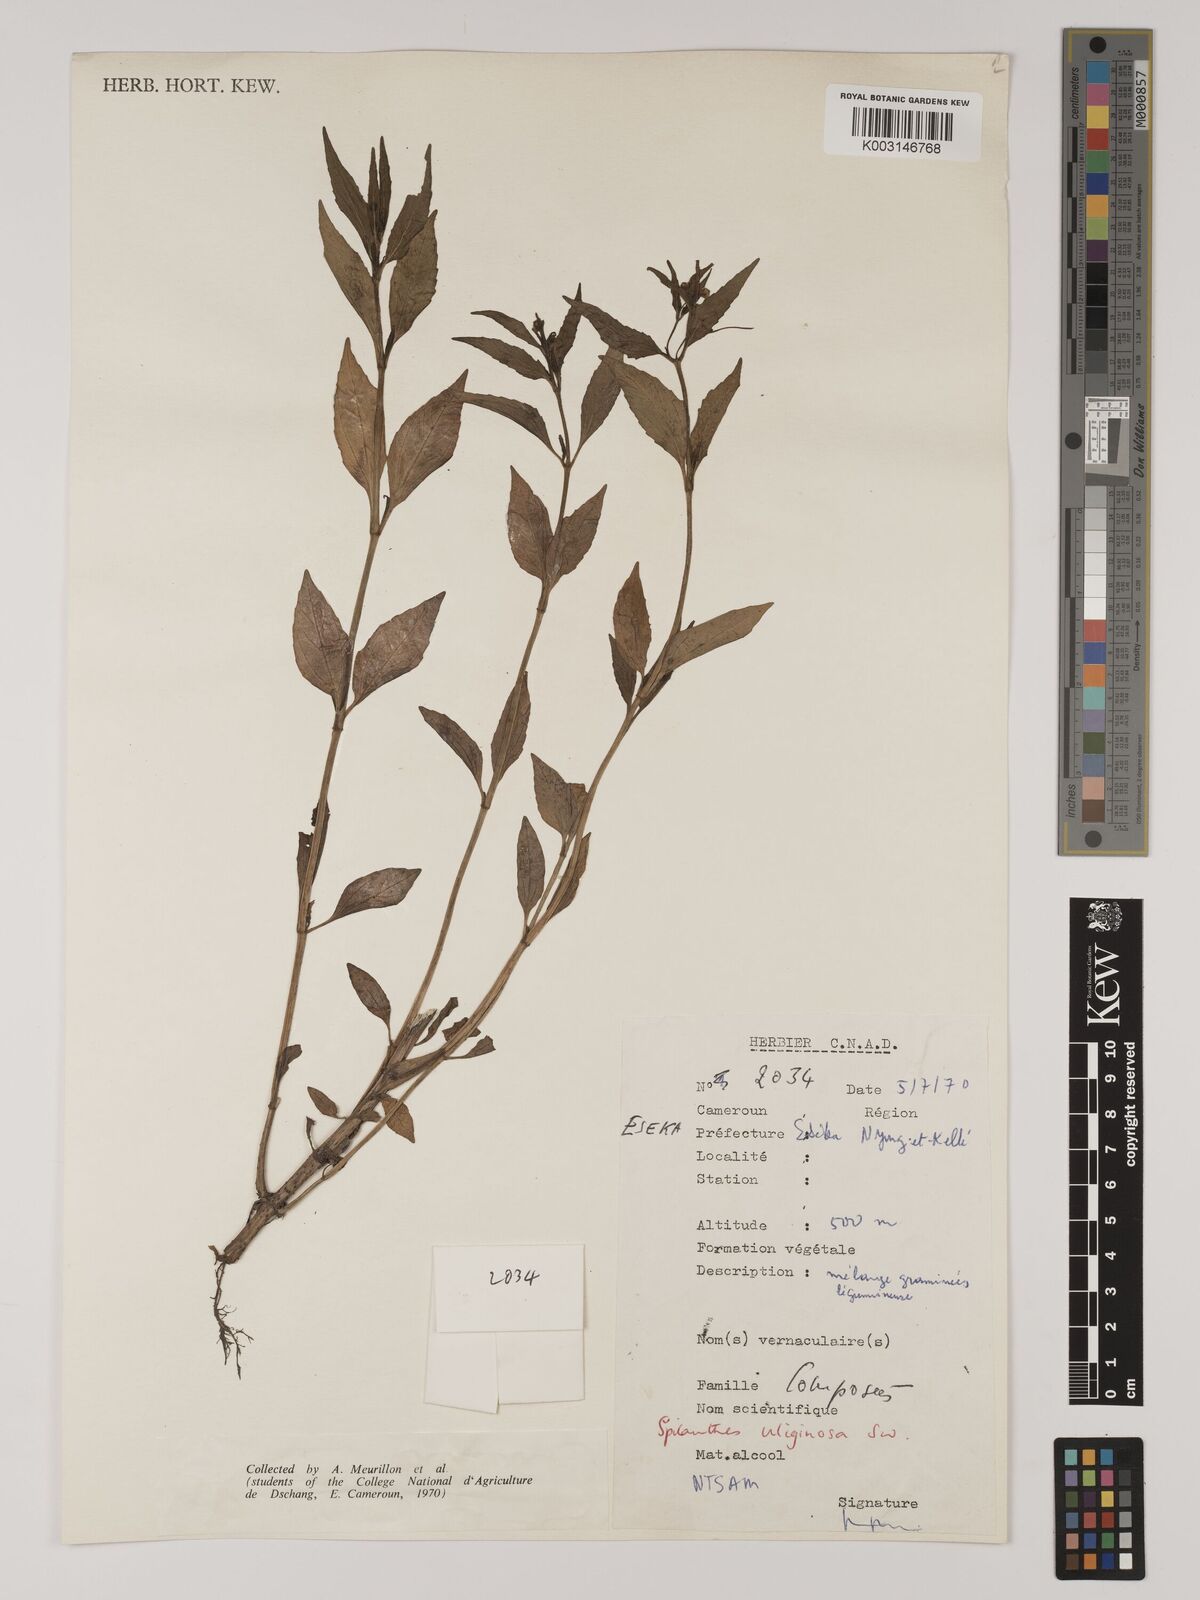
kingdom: Plantae
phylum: Tracheophyta
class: Magnoliopsida
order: Asterales
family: Asteraceae
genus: Acmella
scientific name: Acmella uliginosa
